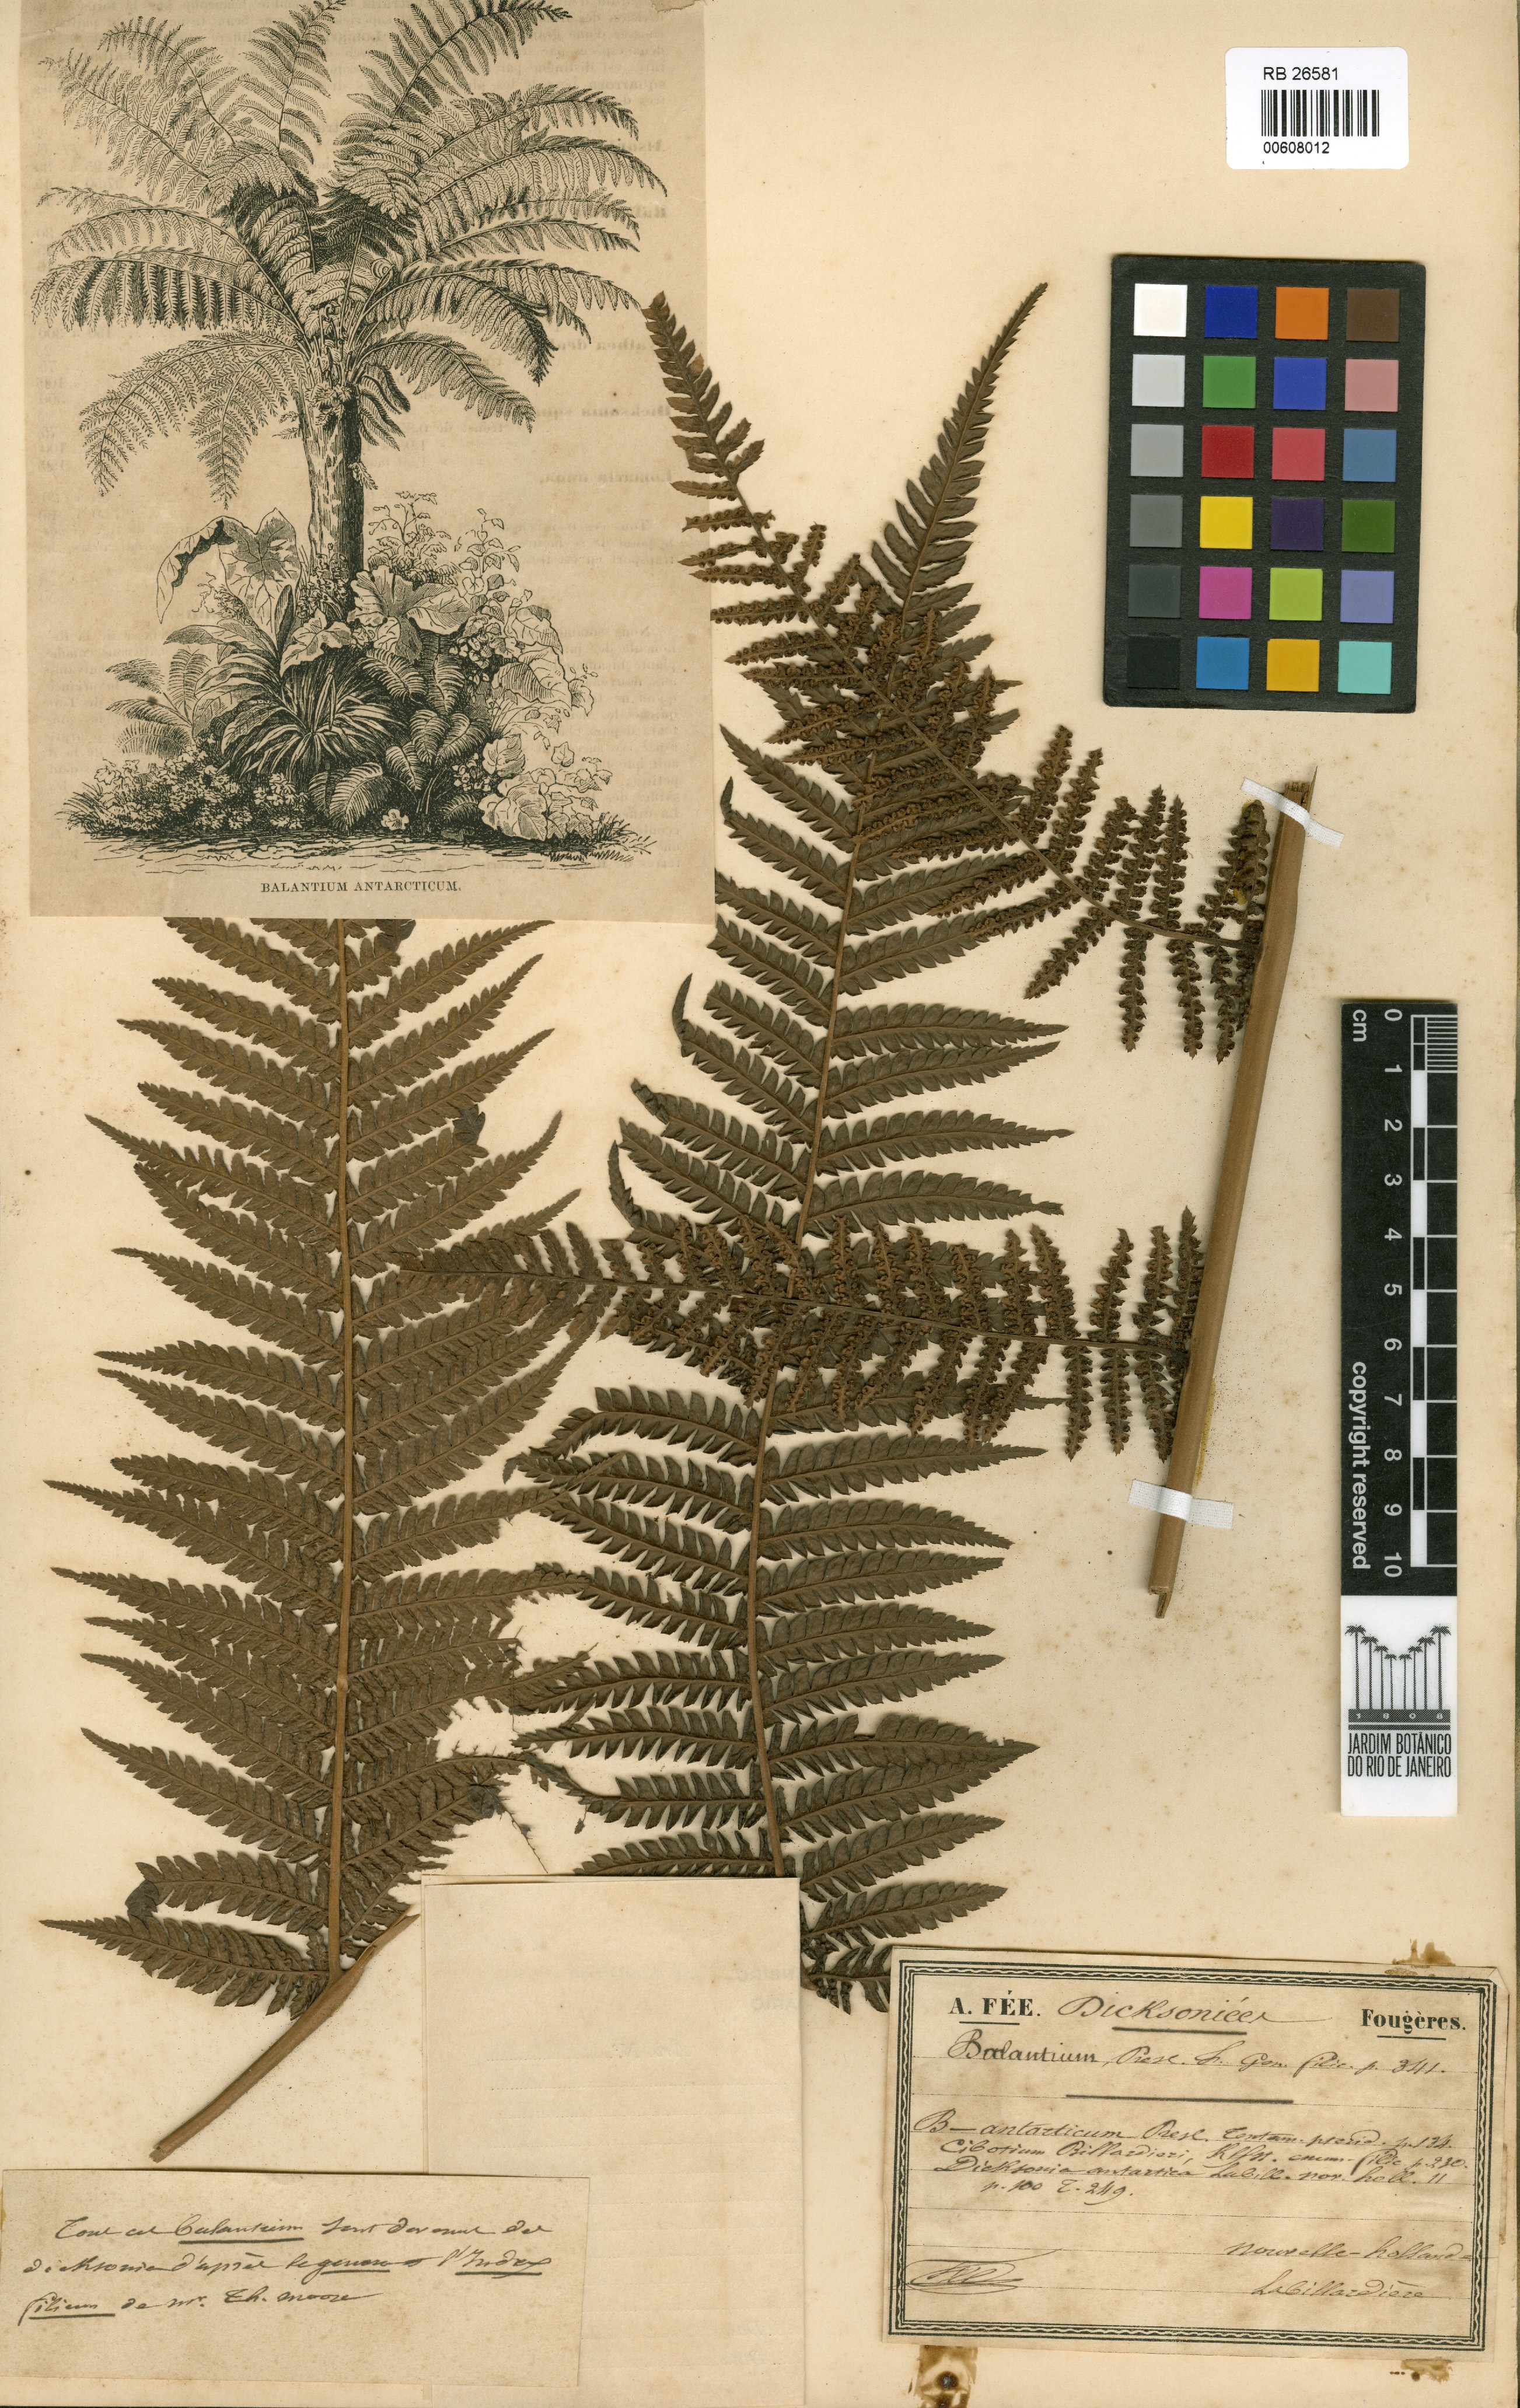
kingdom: Plantae
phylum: Tracheophyta
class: Polypodiopsida
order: Cyatheales
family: Dicksoniaceae
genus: Dicksonia
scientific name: Dicksonia antarctica
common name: Australian treefern
